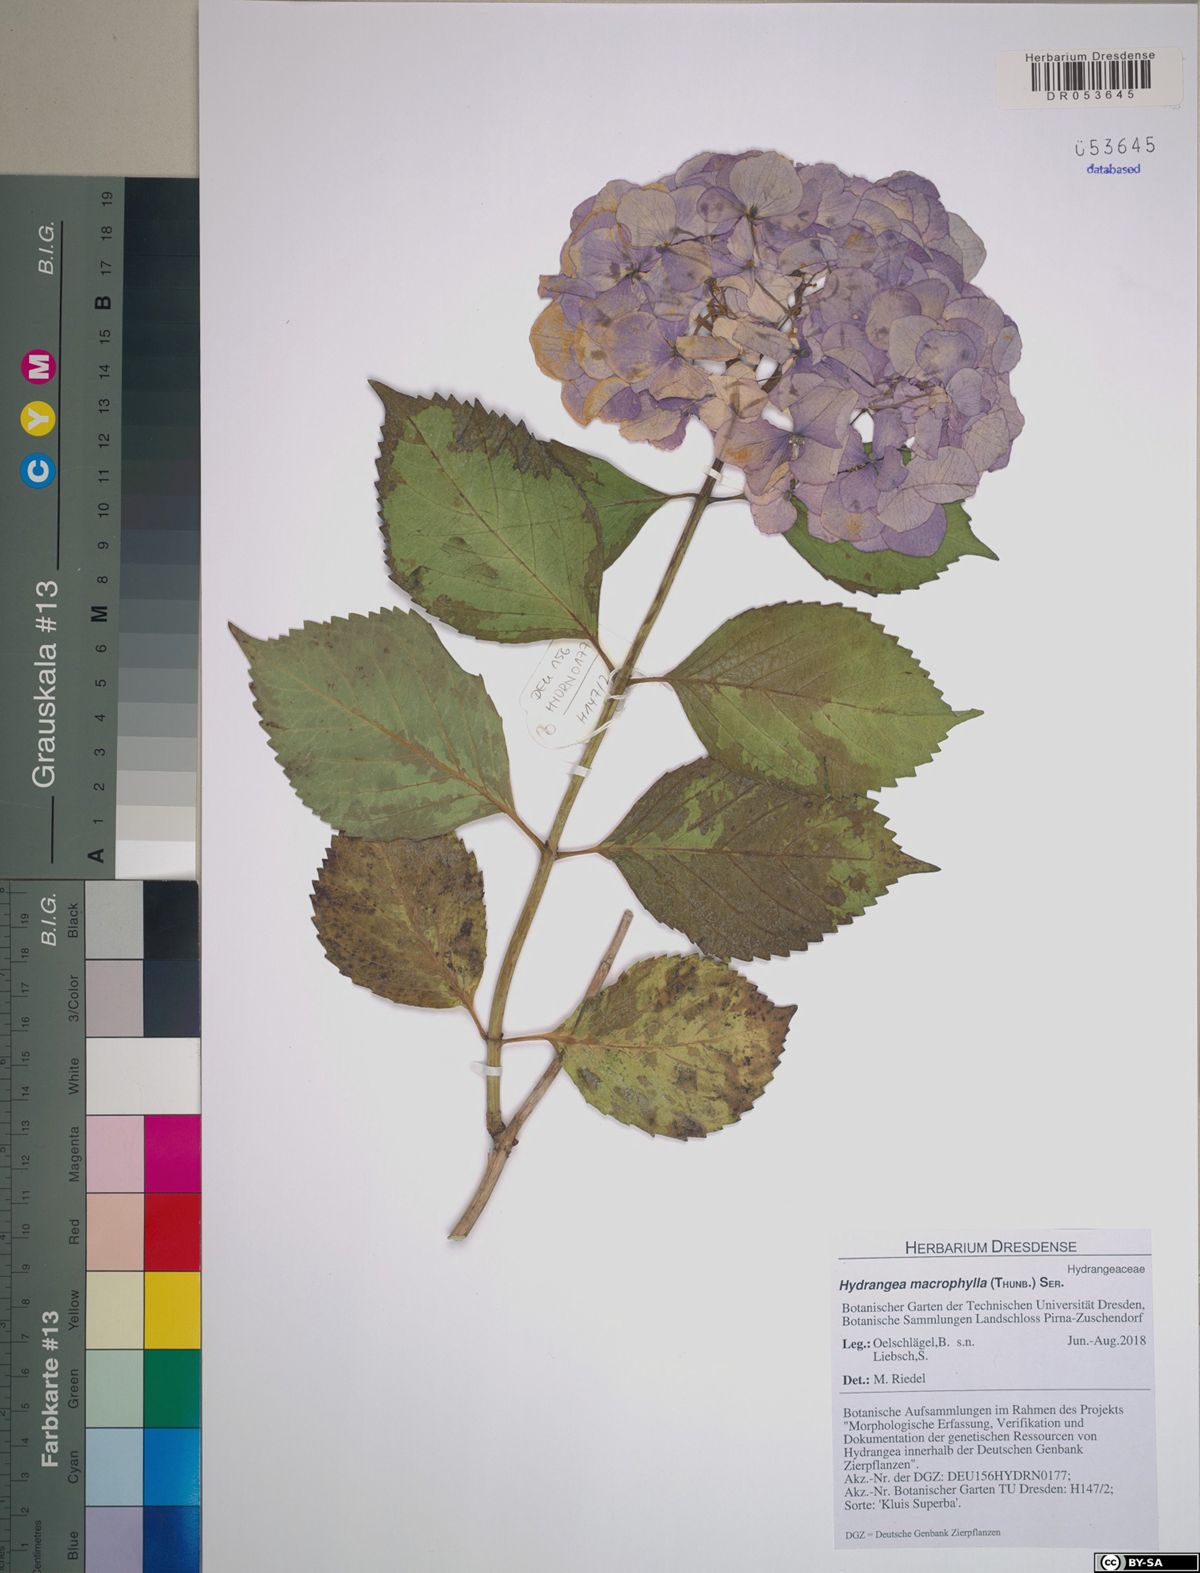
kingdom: Plantae
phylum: Tracheophyta
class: Magnoliopsida
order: Cornales
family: Hydrangeaceae
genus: Hydrangea
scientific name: Hydrangea macrophylla
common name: Hydrangea
